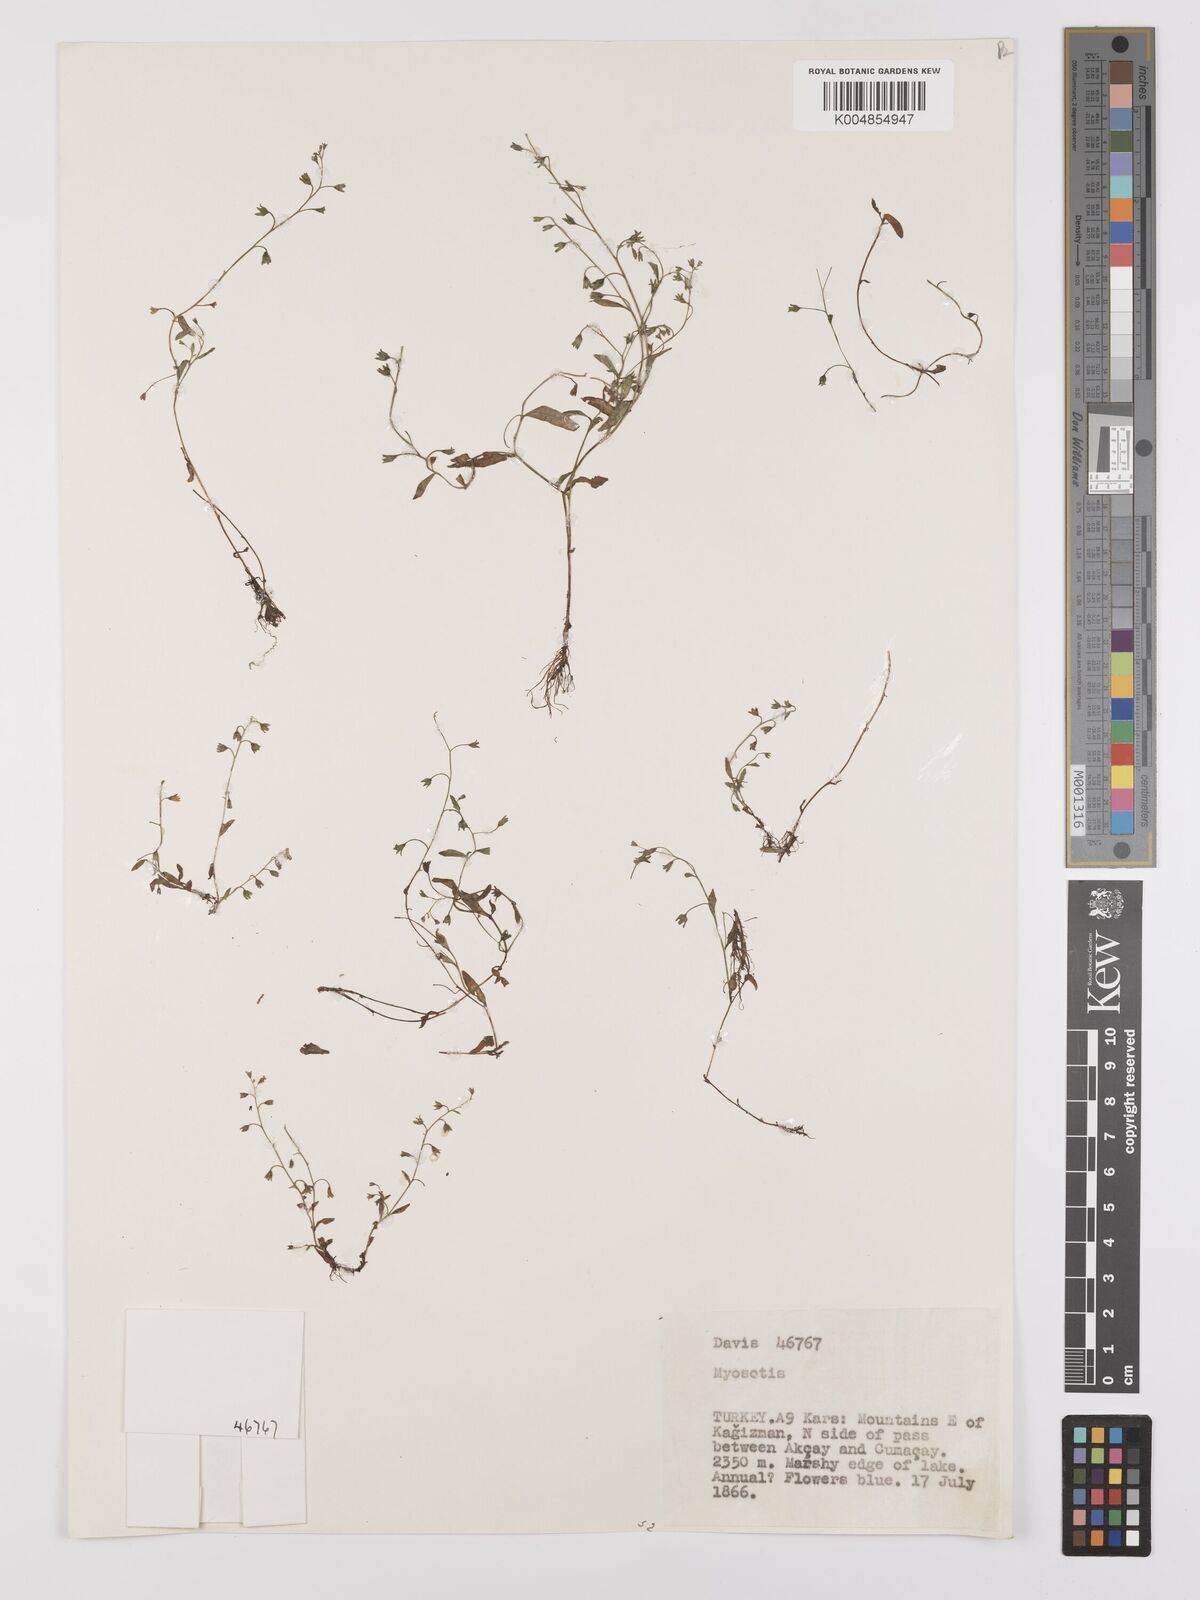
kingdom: Plantae
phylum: Tracheophyta
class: Magnoliopsida
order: Boraginales
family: Boraginaceae
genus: Myosotis
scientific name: Myosotis
